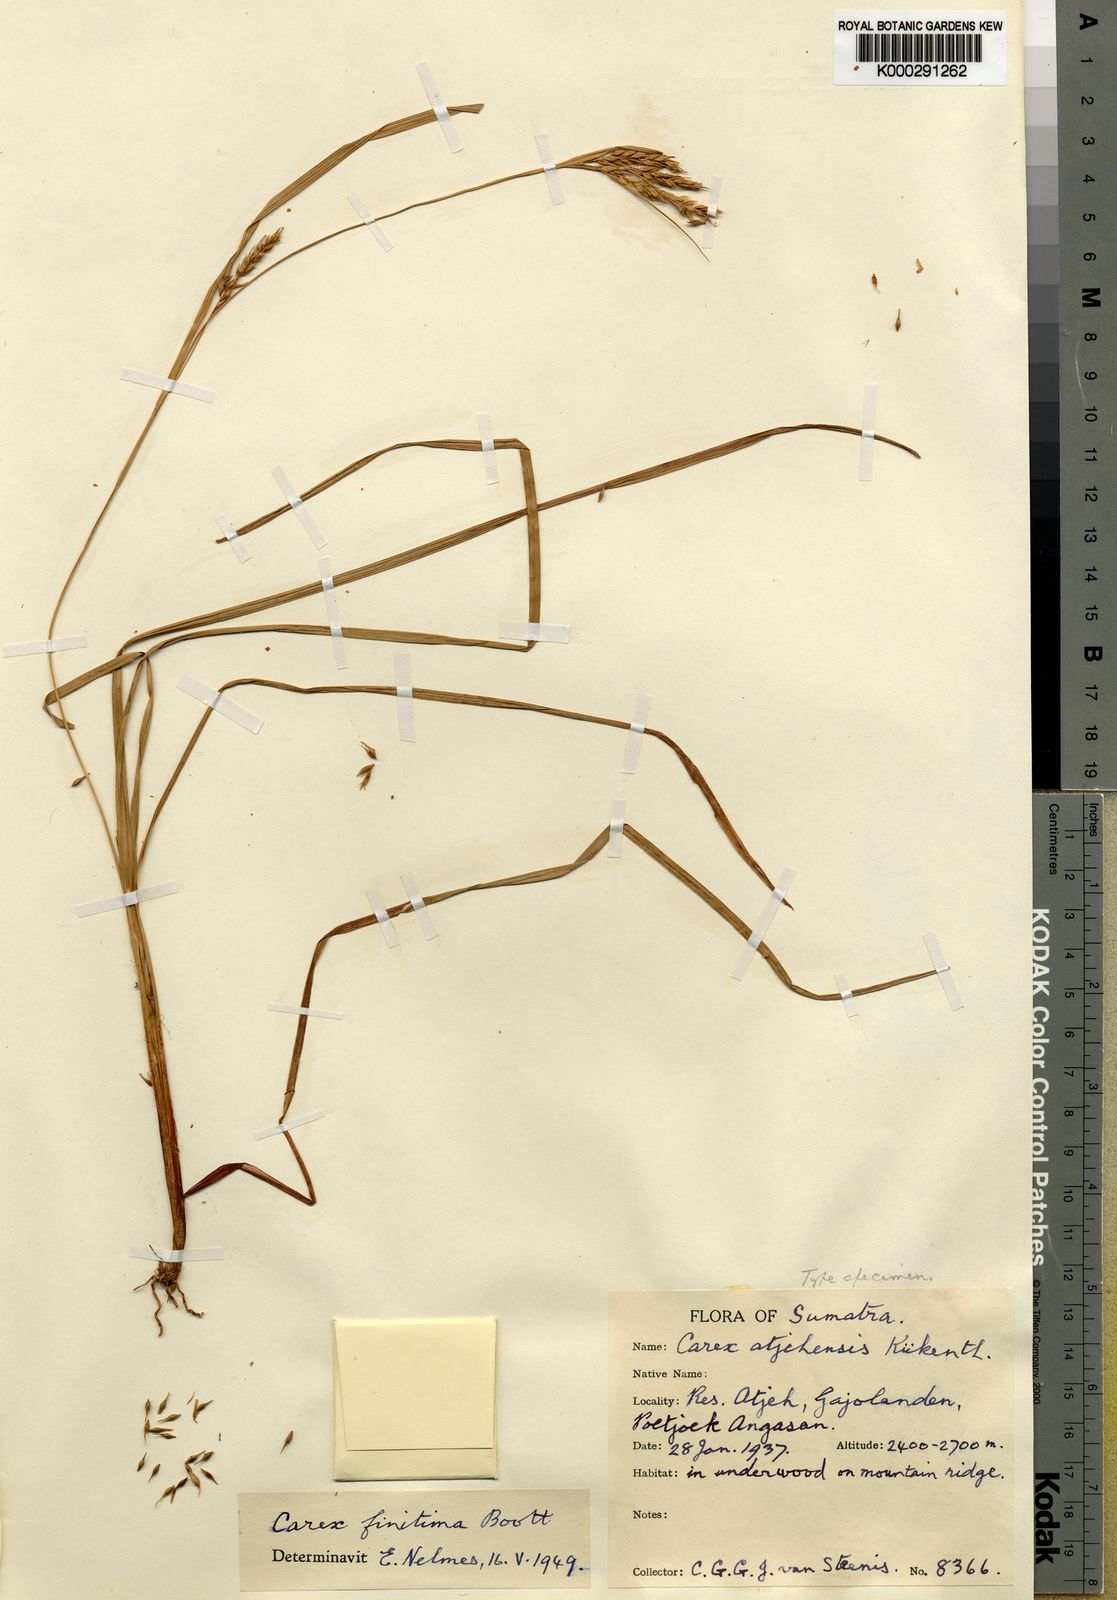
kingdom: Plantae
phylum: Tracheophyta
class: Liliopsida
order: Poales
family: Cyperaceae
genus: Carex
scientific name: Carex finitima
